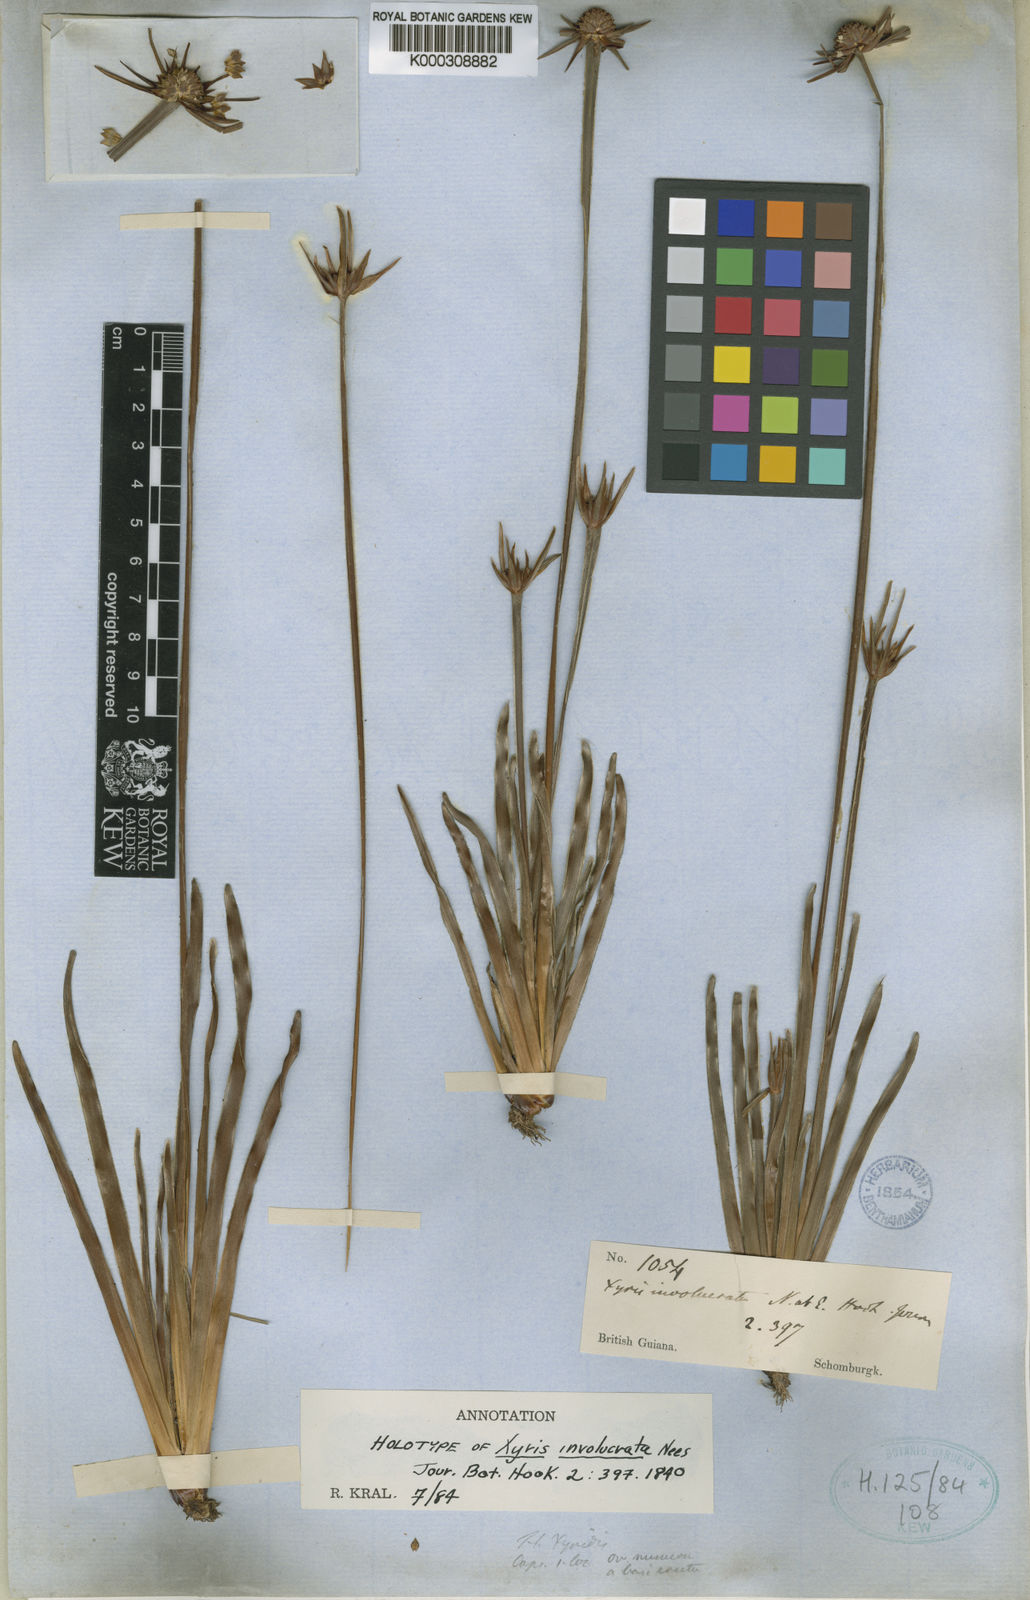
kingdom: Plantae
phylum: Tracheophyta
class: Liliopsida
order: Poales
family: Xyridaceae
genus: Xyris
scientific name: Xyris involucrata
